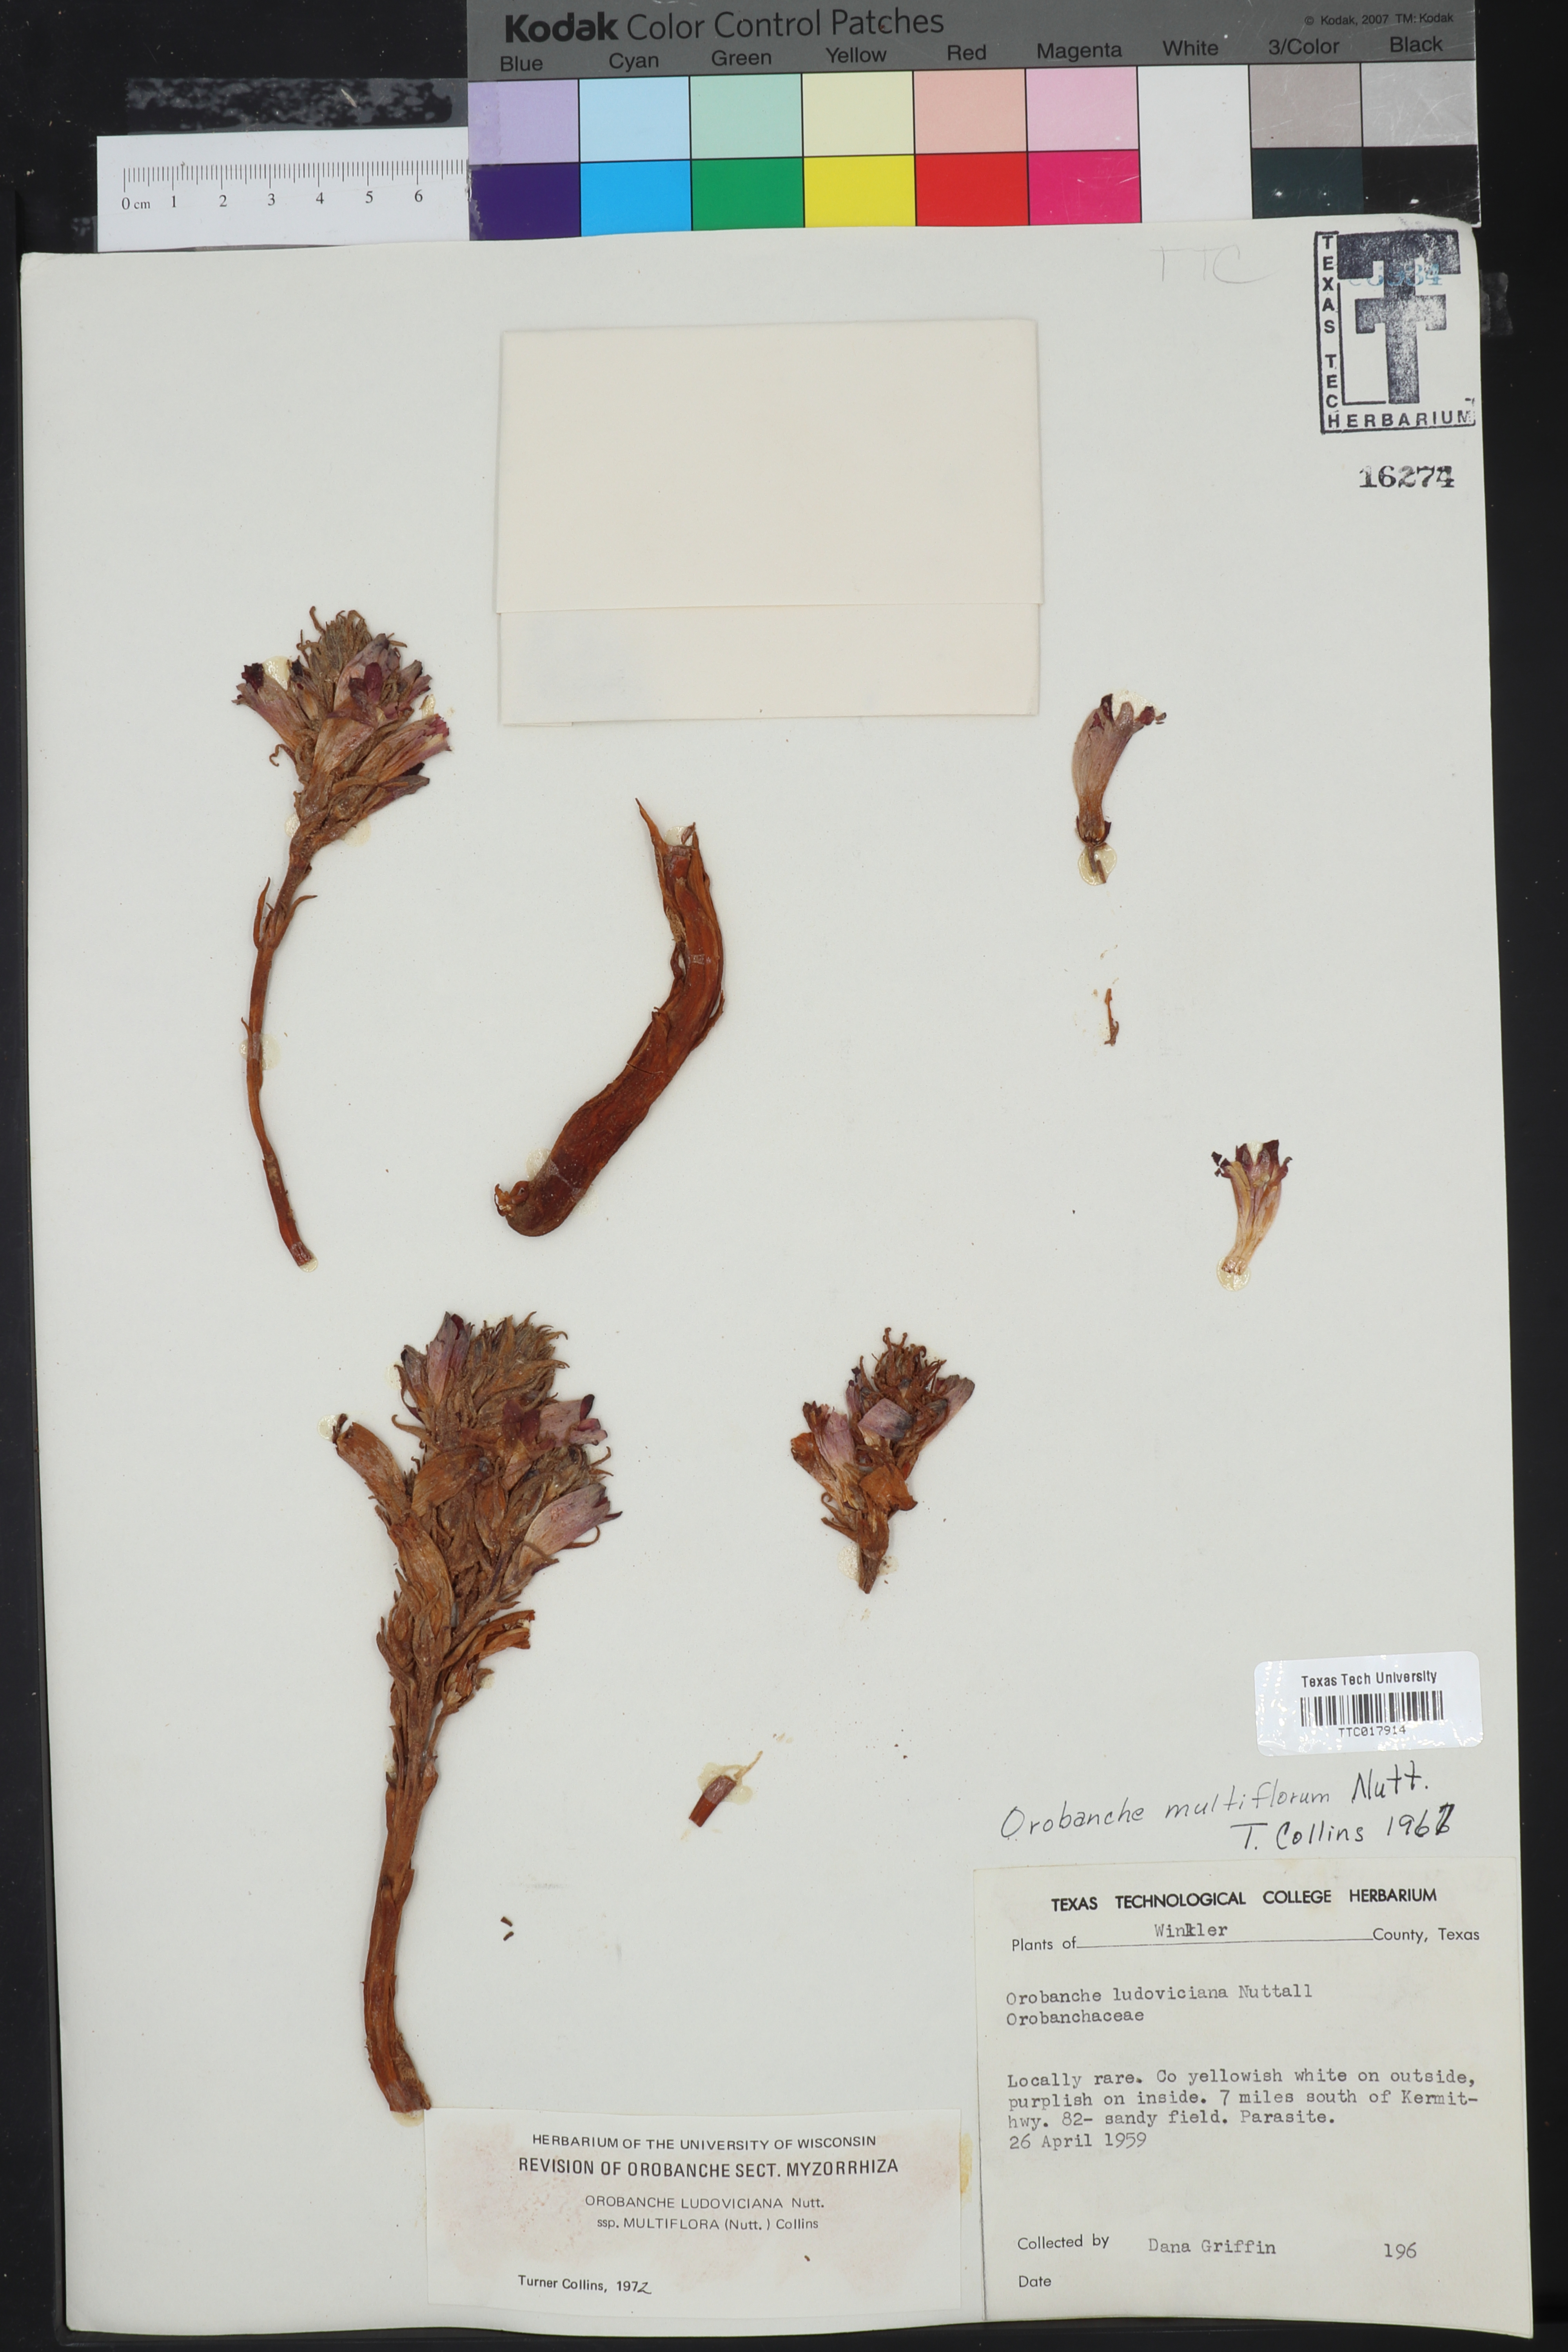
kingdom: Plantae
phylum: Tracheophyta
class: Magnoliopsida
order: Lamiales
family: Orobanchaceae
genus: Aphyllon
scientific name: Aphyllon multiflorum
